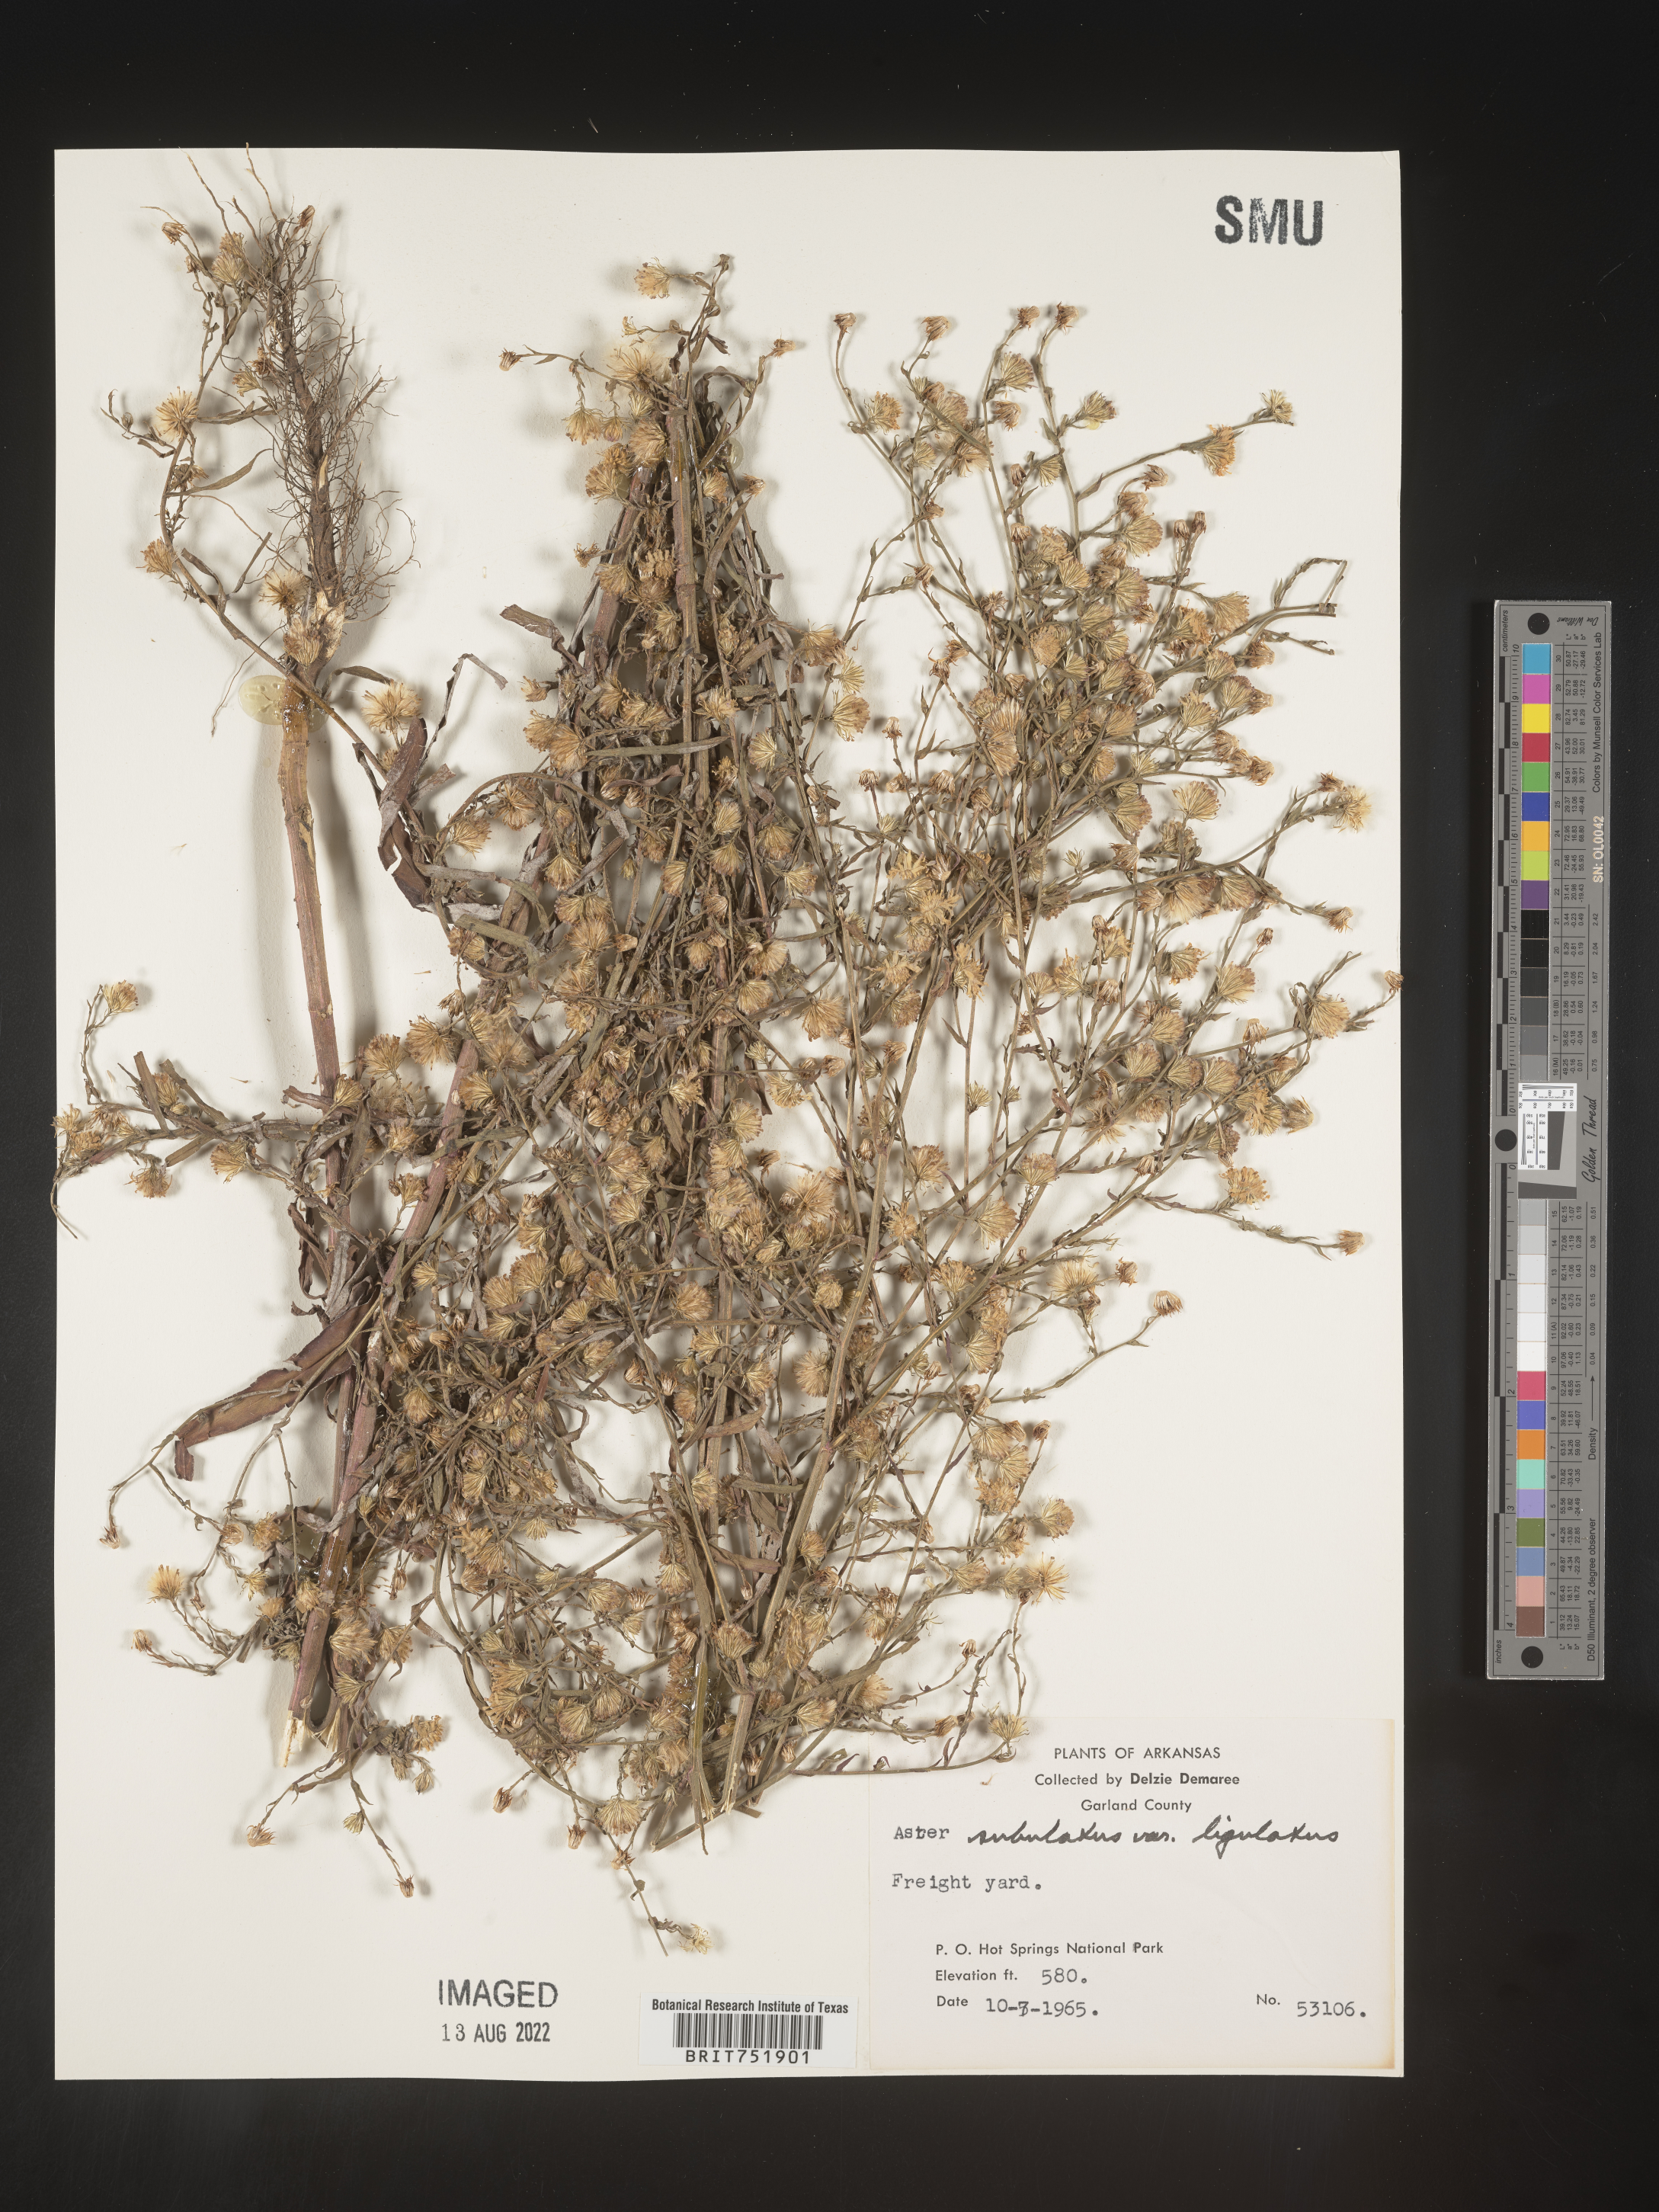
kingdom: Plantae
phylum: Tracheophyta
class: Magnoliopsida
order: Asterales
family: Asteraceae
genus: Symphyotrichum
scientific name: Symphyotrichum divaricatum
